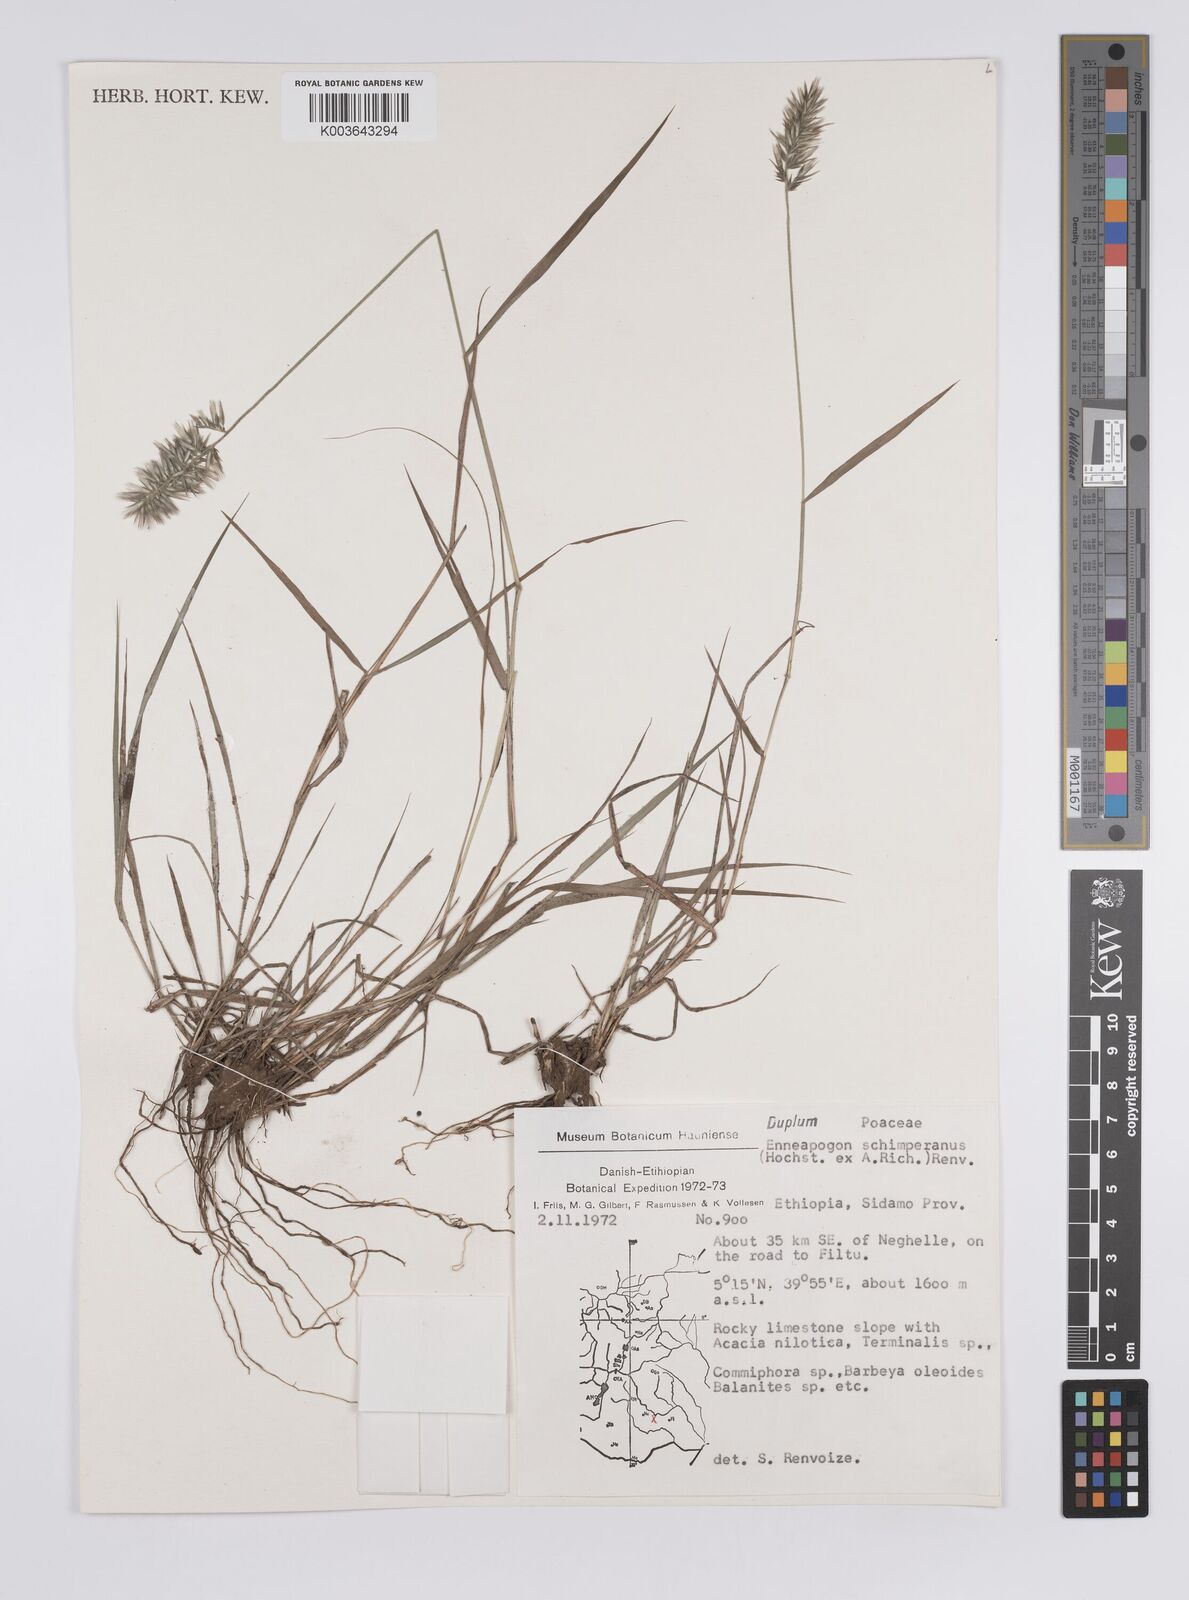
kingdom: Plantae
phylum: Tracheophyta
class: Liliopsida
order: Poales
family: Poaceae
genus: Enneapogon
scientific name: Enneapogon persicus
